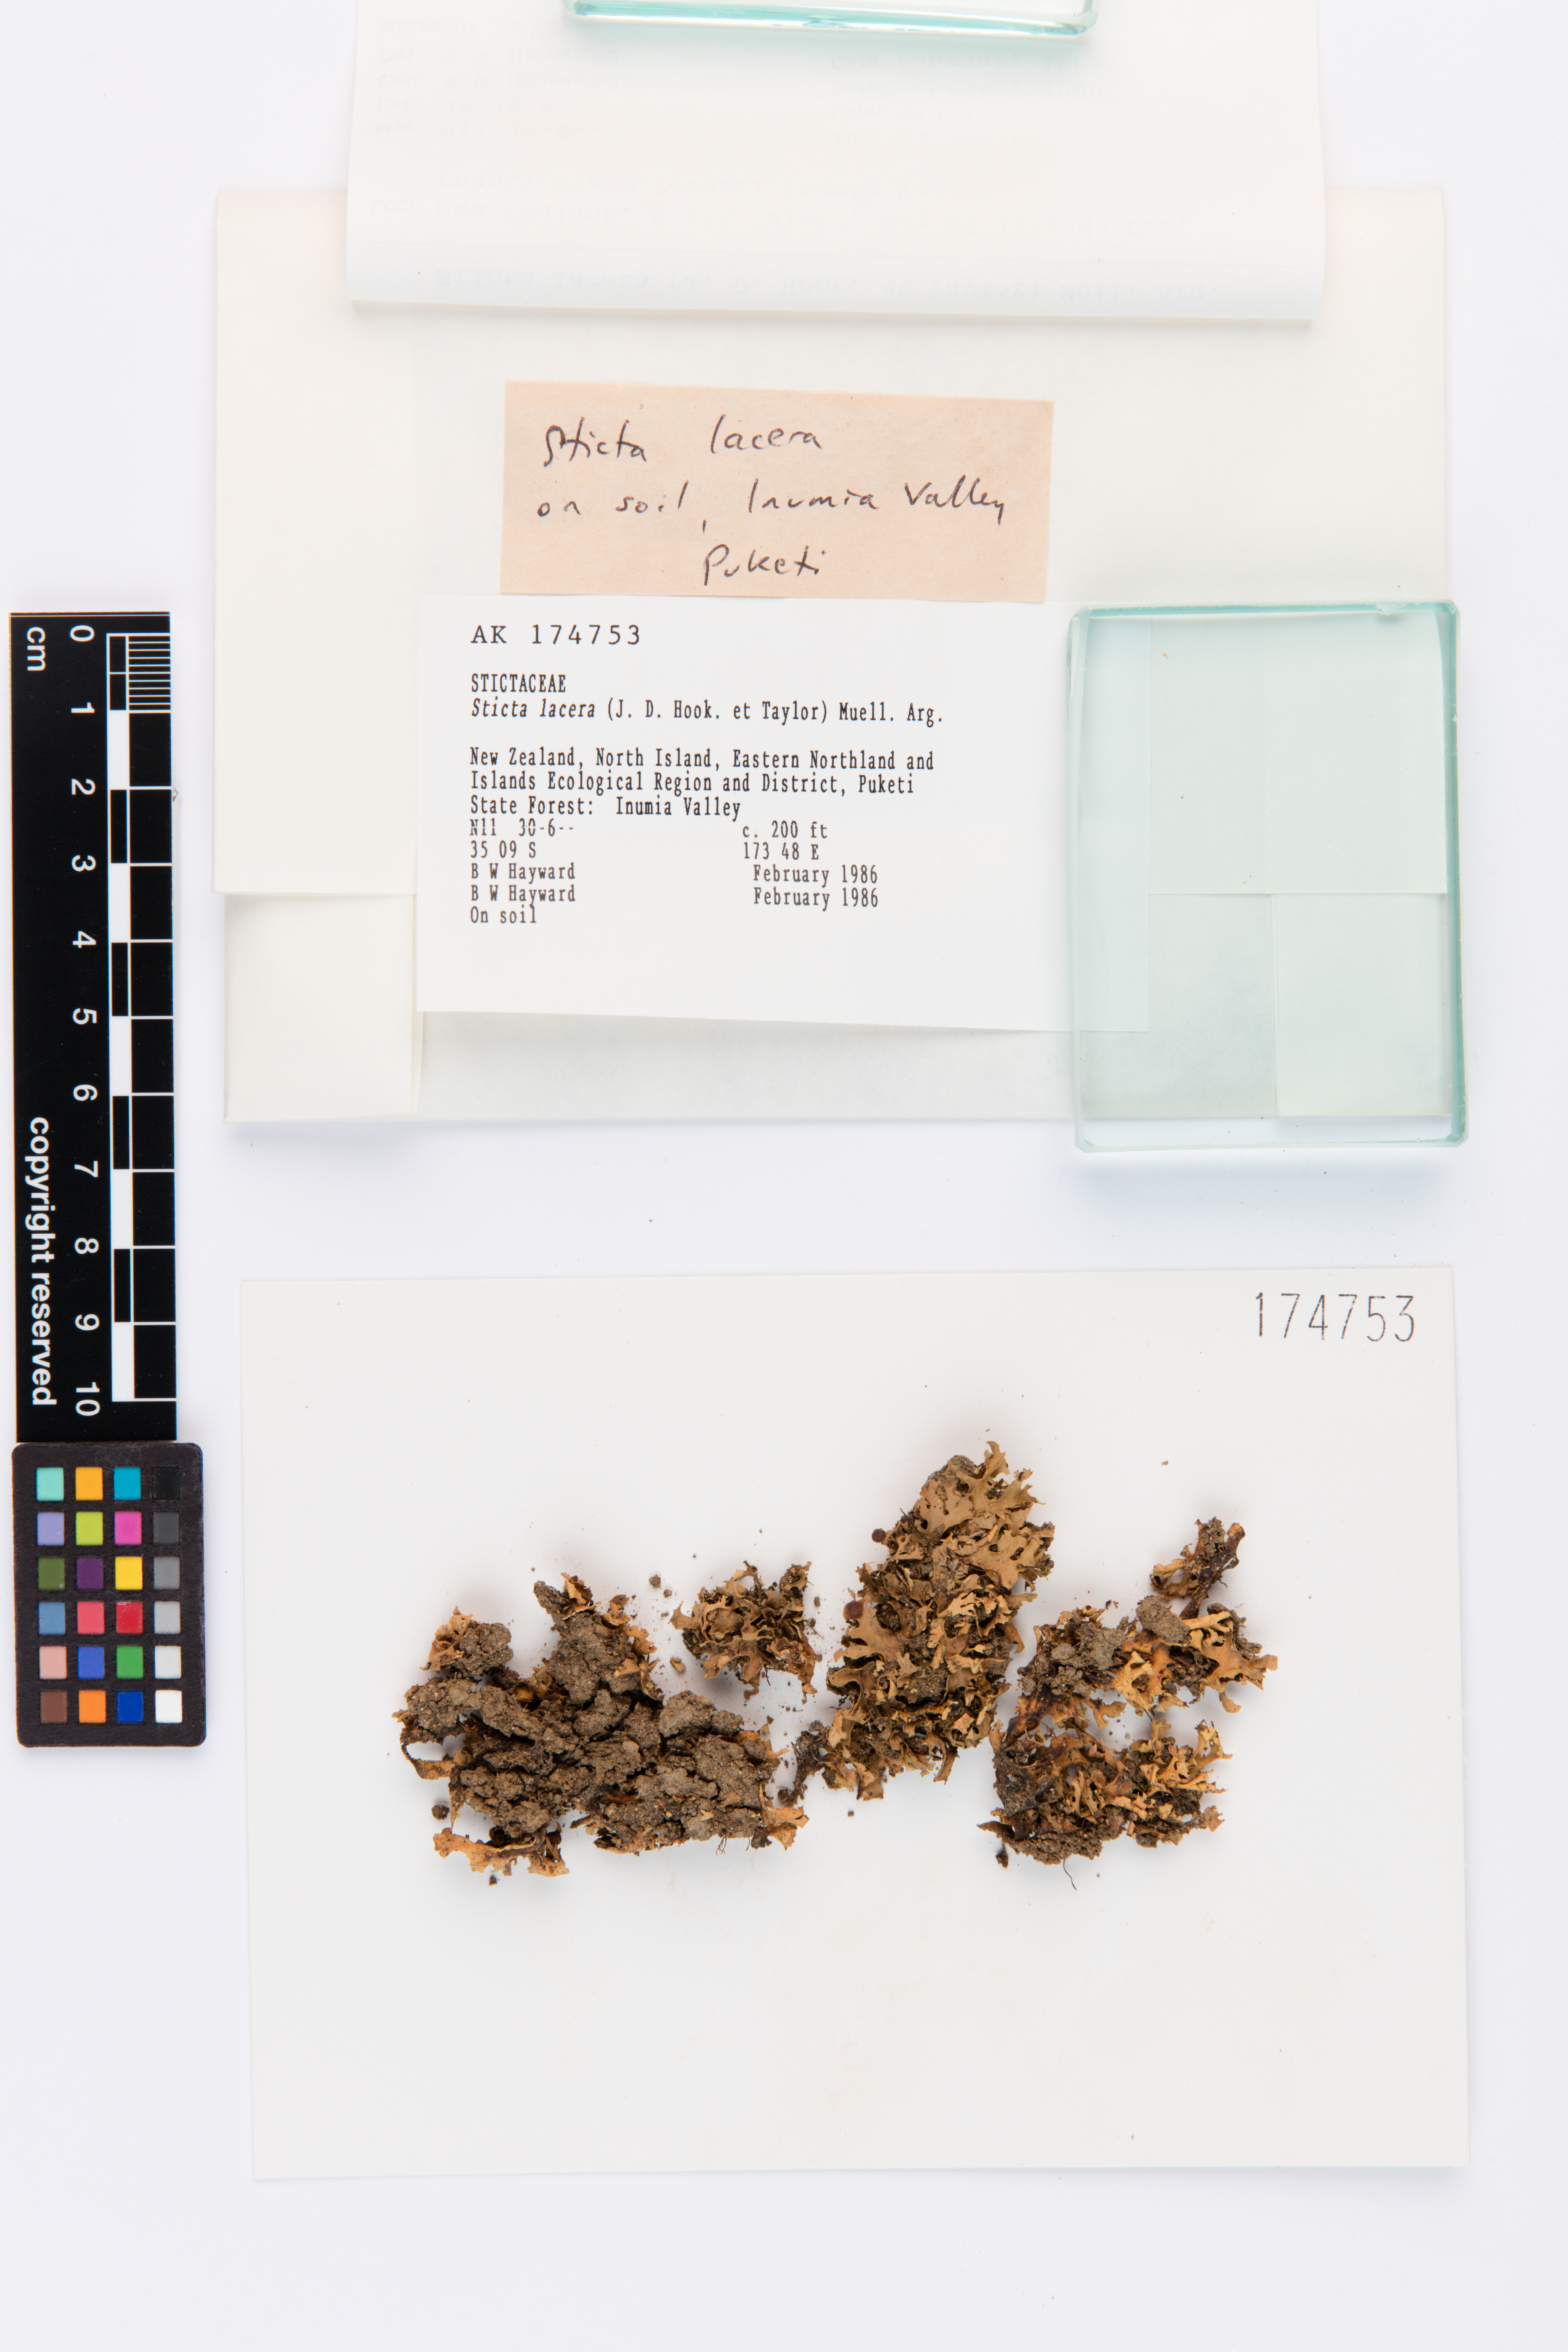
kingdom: Fungi
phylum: Ascomycota
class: Lecanoromycetes
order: Peltigerales
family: Lobariaceae
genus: Sticta
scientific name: Sticta
